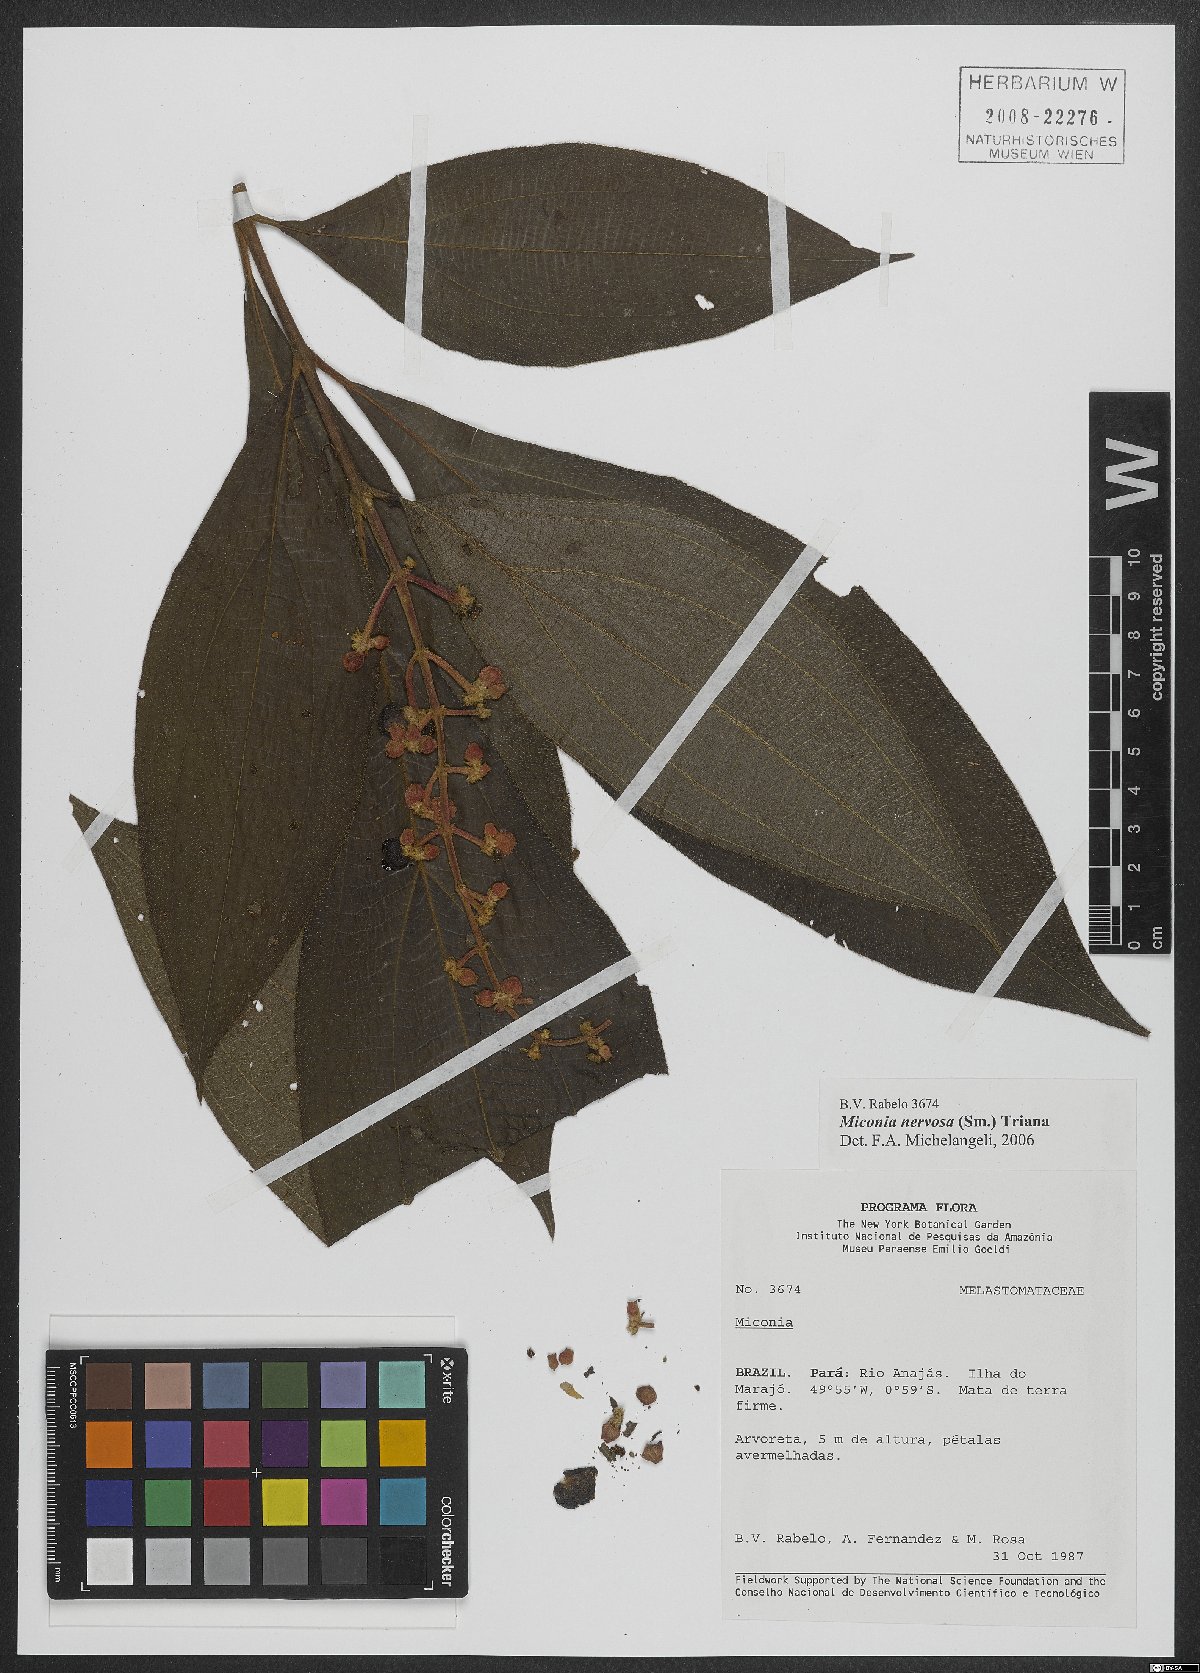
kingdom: Plantae
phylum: Tracheophyta
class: Magnoliopsida
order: Myrtales
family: Melastomataceae
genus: Miconia
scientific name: Miconia nervosa
